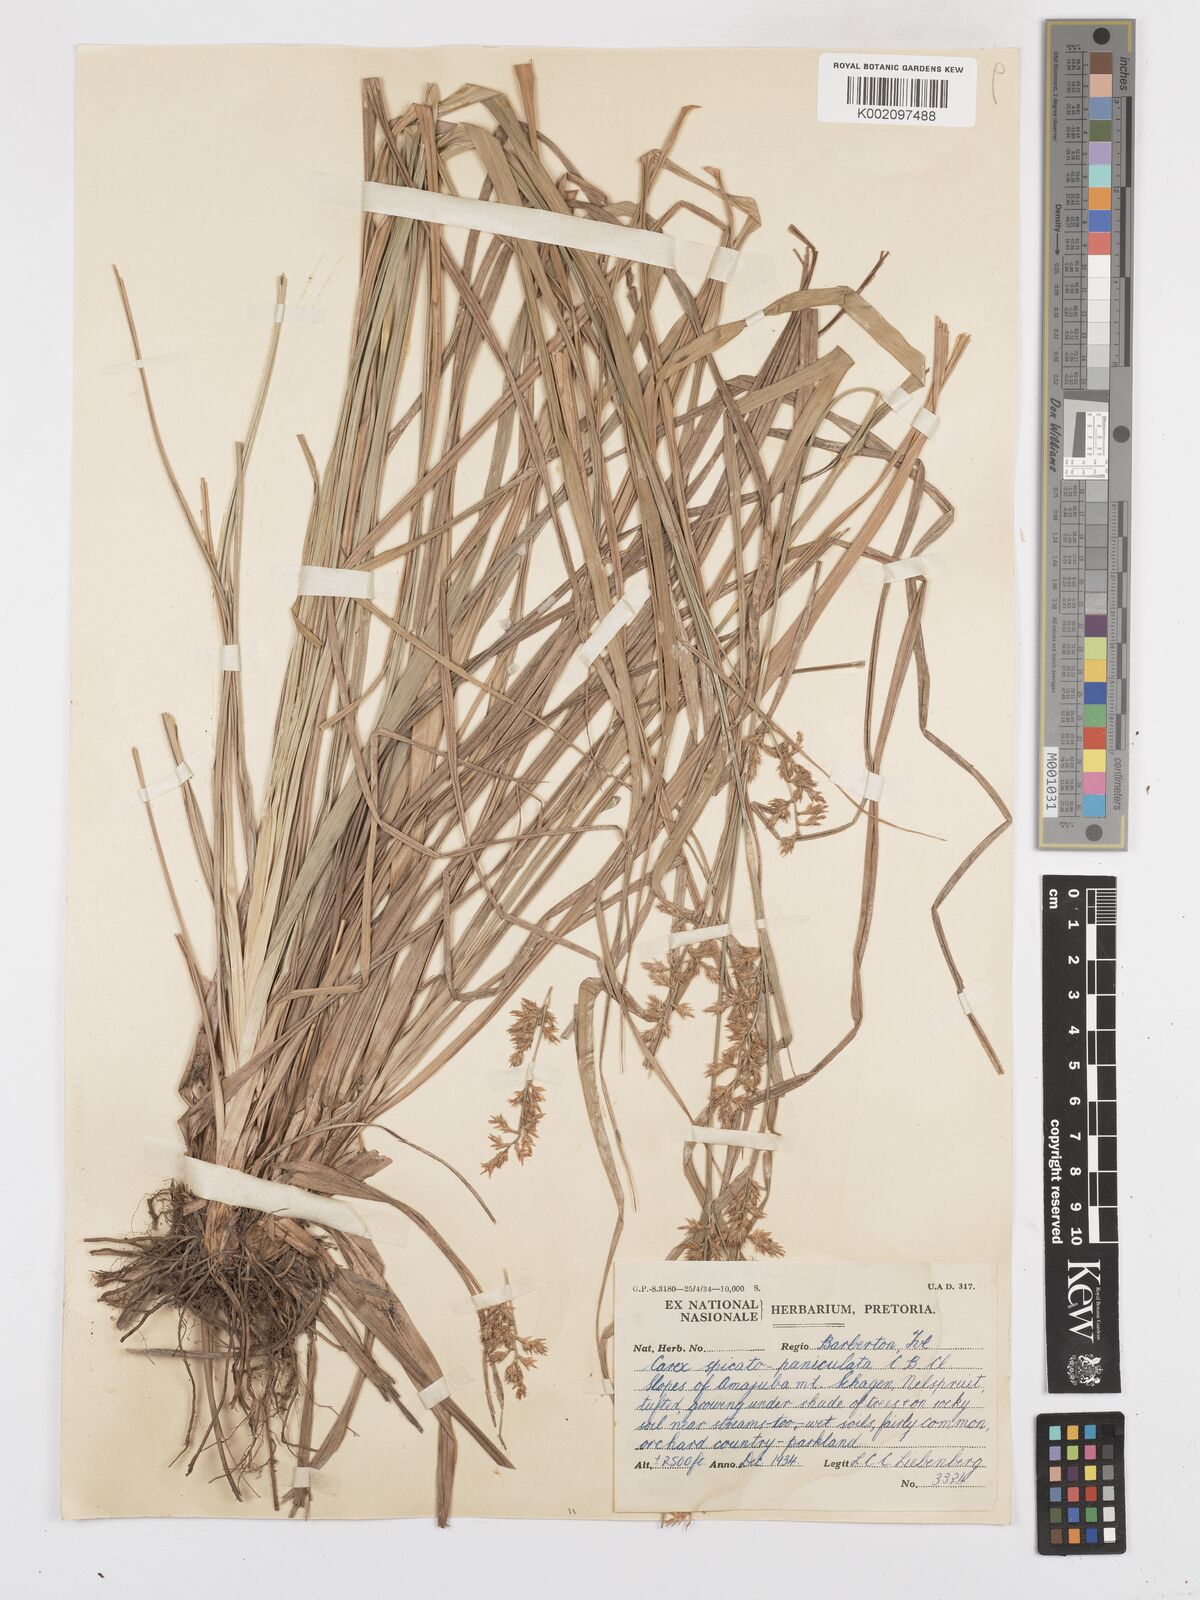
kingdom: Plantae
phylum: Tracheophyta
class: Liliopsida
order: Poales
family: Cyperaceae
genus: Carex
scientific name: Carex spicatopaniculata
